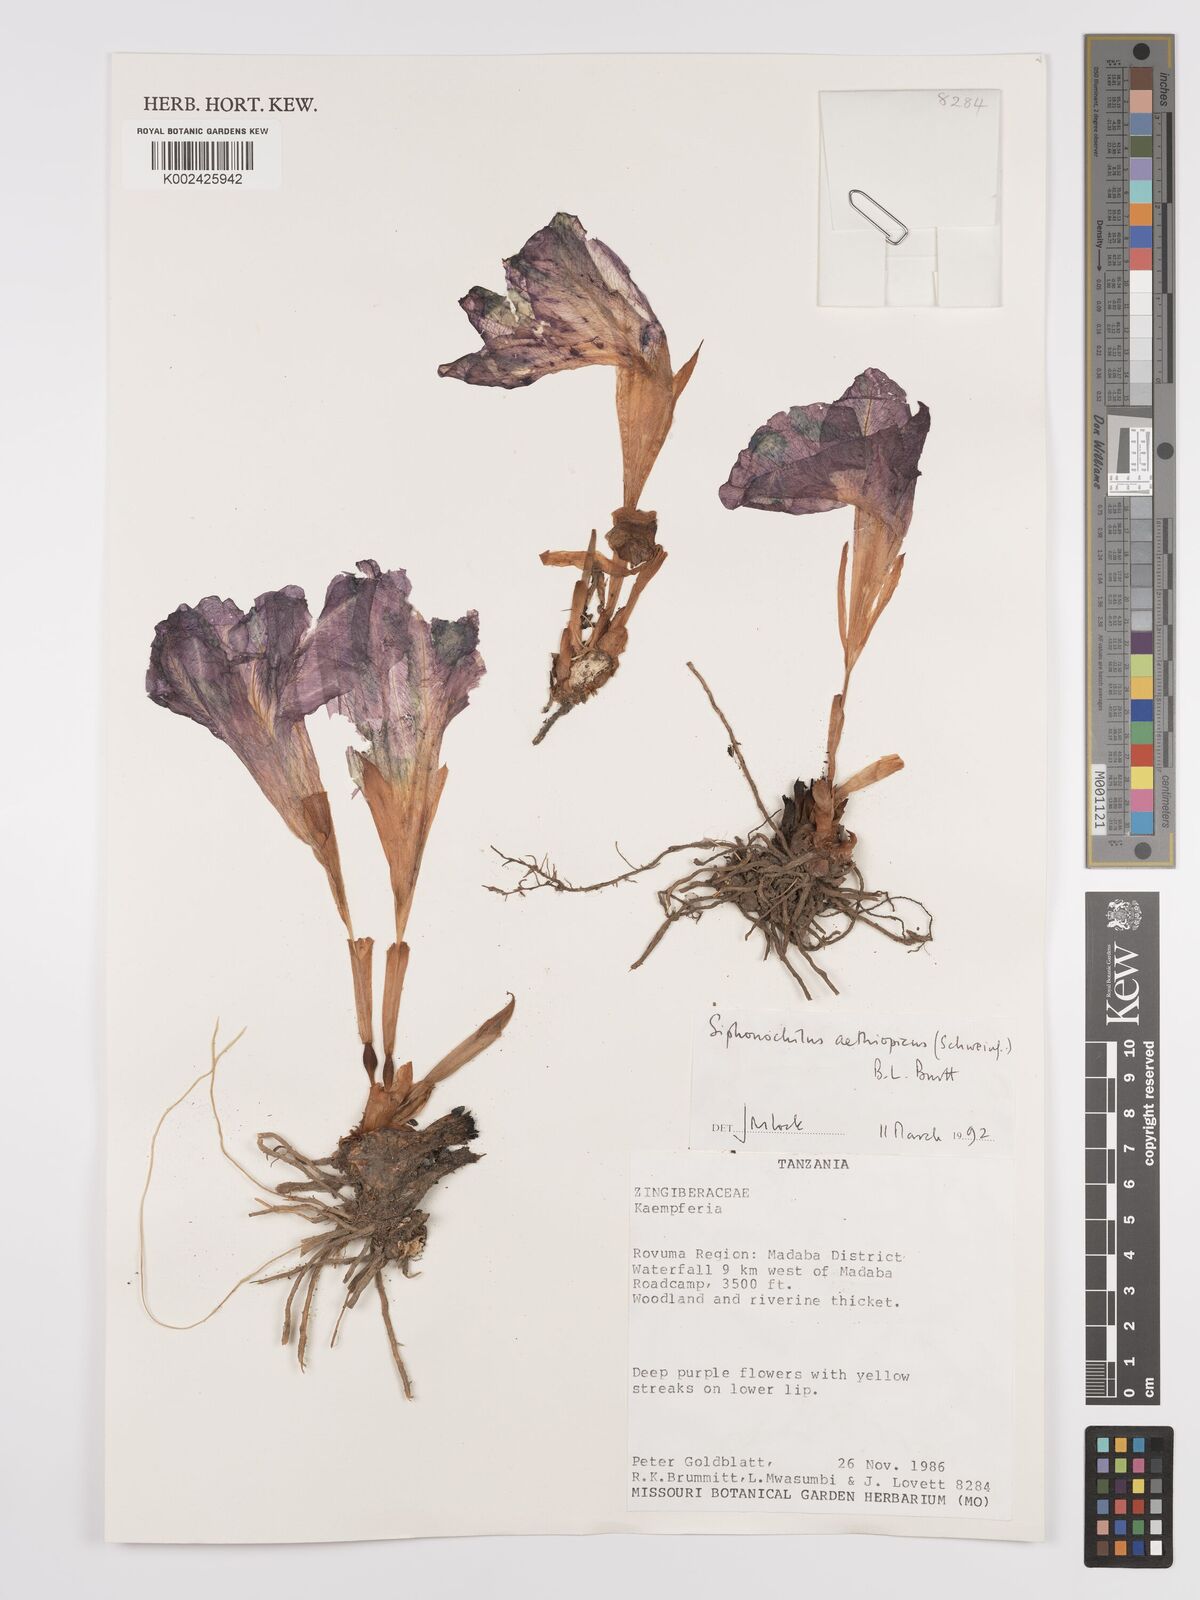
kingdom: Plantae
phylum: Tracheophyta
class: Liliopsida
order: Zingiberales
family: Zingiberaceae
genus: Siphonochilus
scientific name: Siphonochilus aethiopicus
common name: African-ginger
